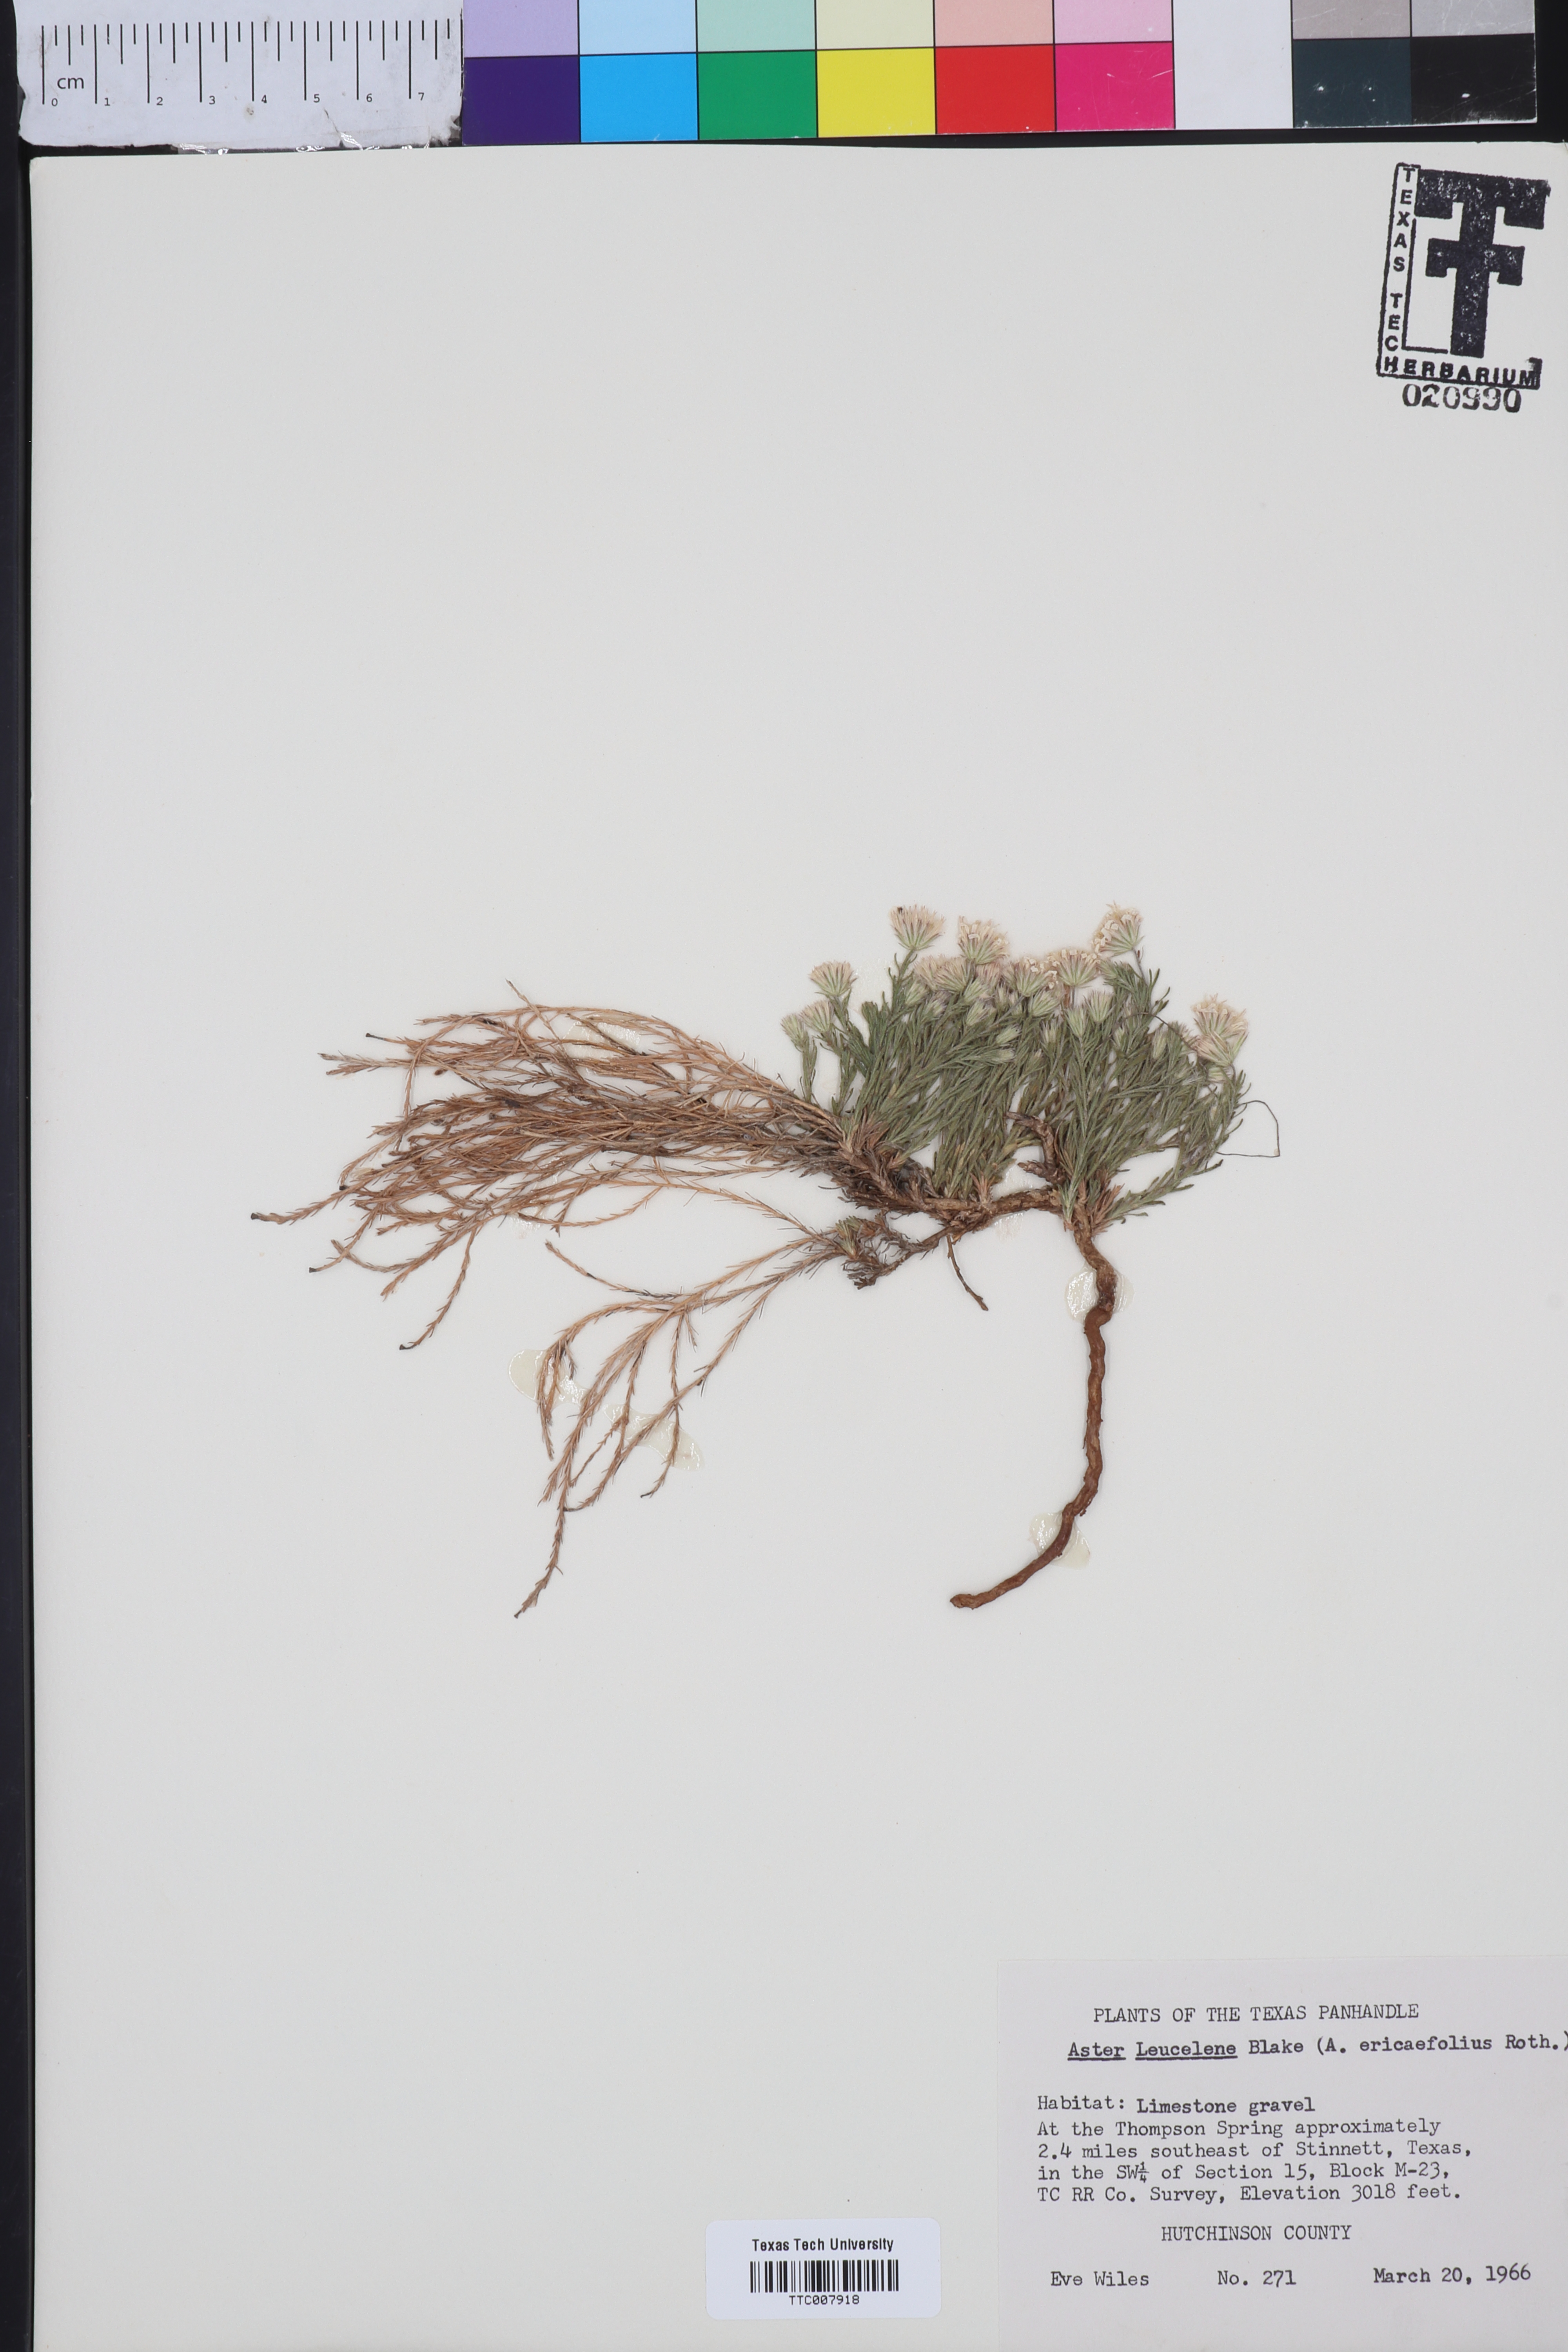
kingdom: Plantae
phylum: Tracheophyta
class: Magnoliopsida
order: Asterales
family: Asteraceae
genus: Chaetopappa
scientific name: Chaetopappa ericoides
